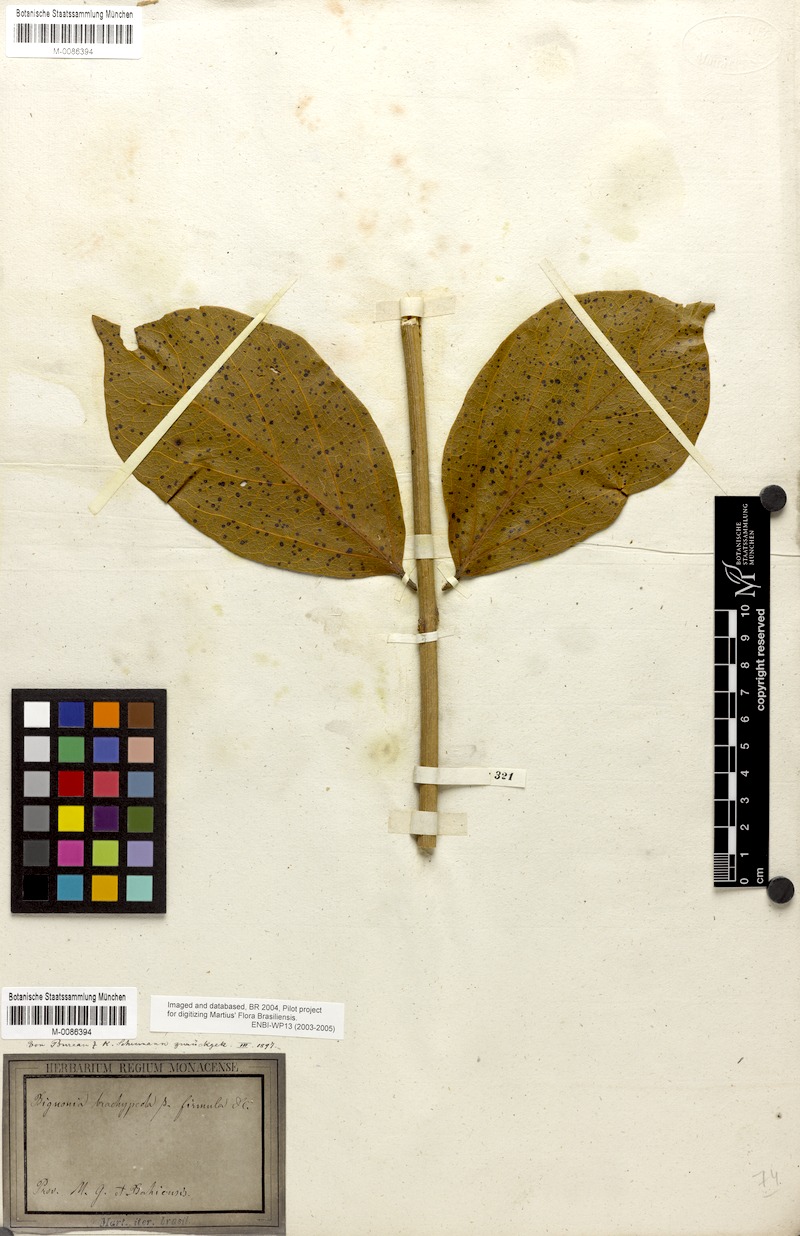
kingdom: Plantae
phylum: Tracheophyta
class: Magnoliopsida
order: Lamiales
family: Bignoniaceae
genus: Fridericia
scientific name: Fridericia platyphylla
